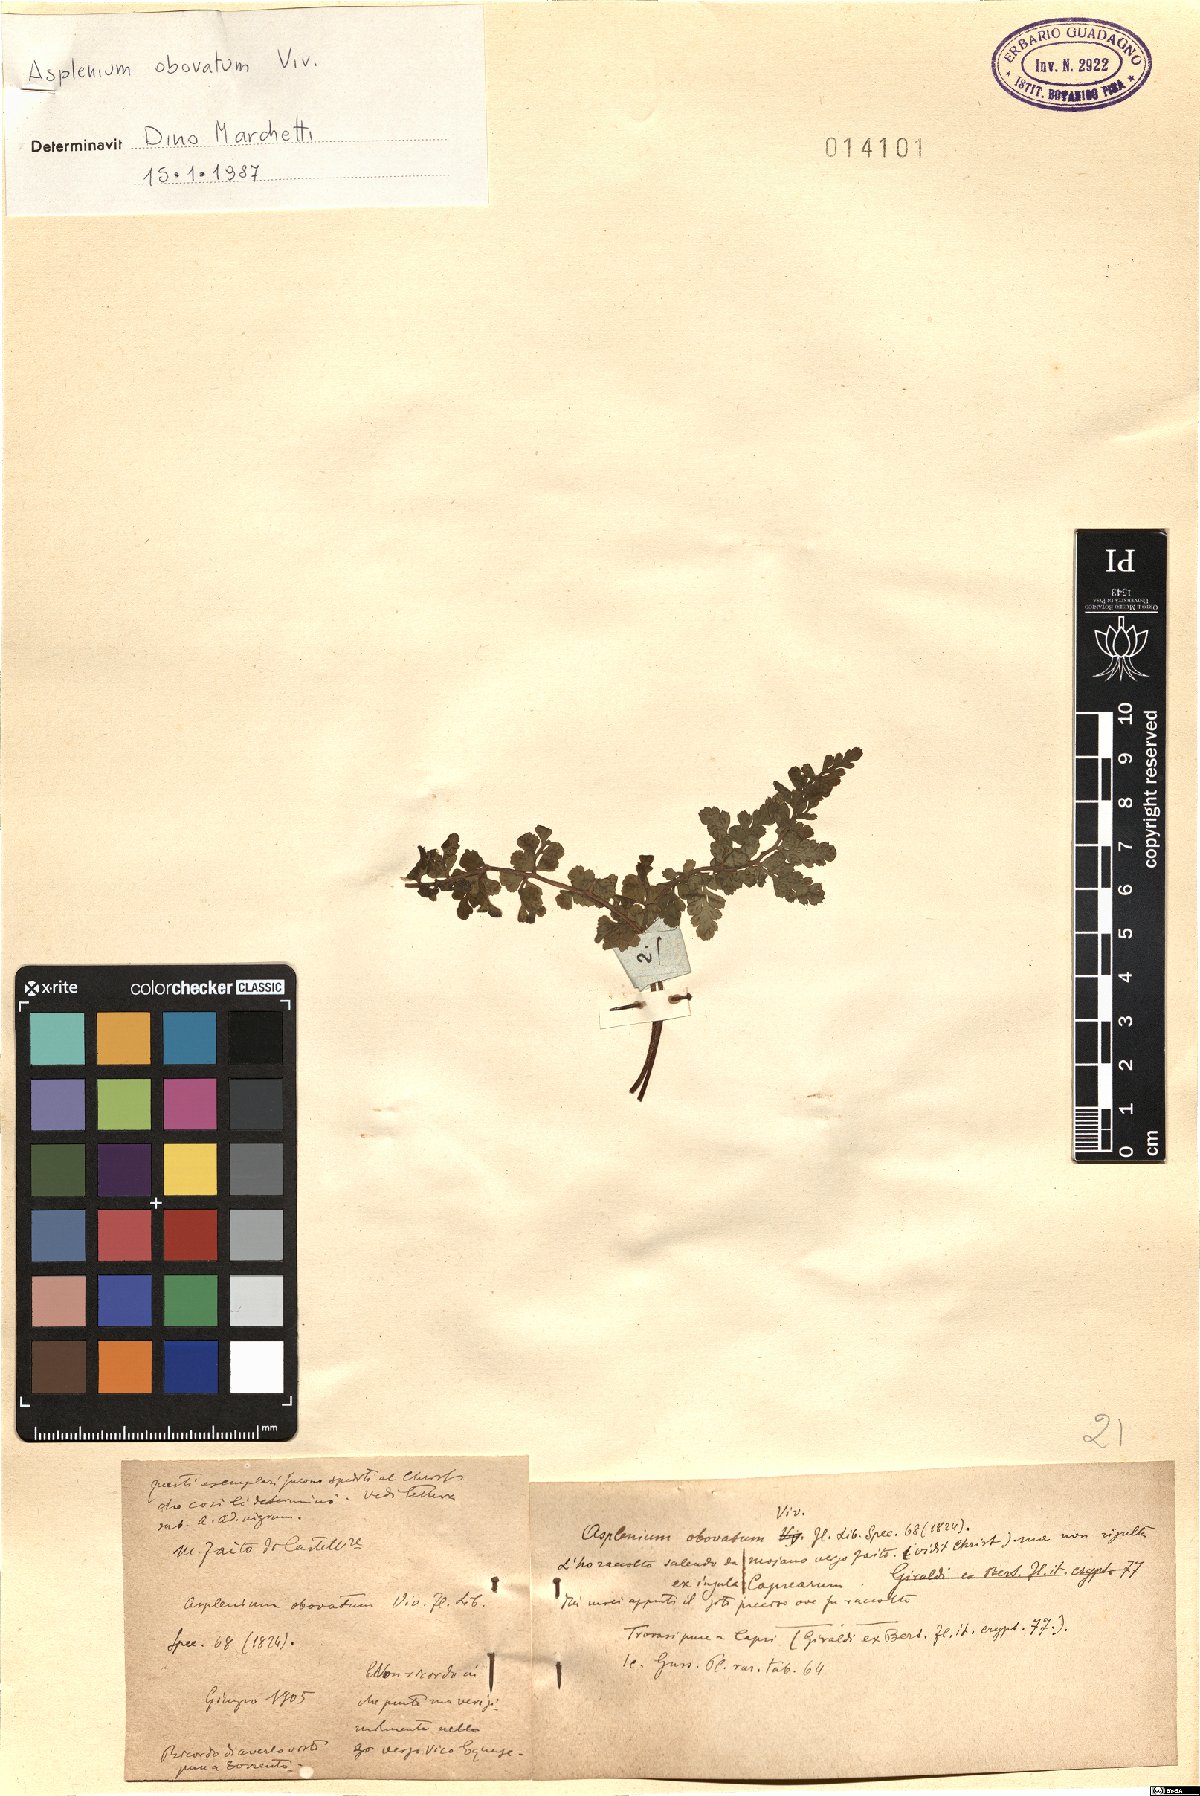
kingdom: Plantae
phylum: Tracheophyta
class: Polypodiopsida
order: Polypodiales
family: Aspleniaceae
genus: Asplenium
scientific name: Asplenium obovatum
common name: Lanceolate spleenwort
